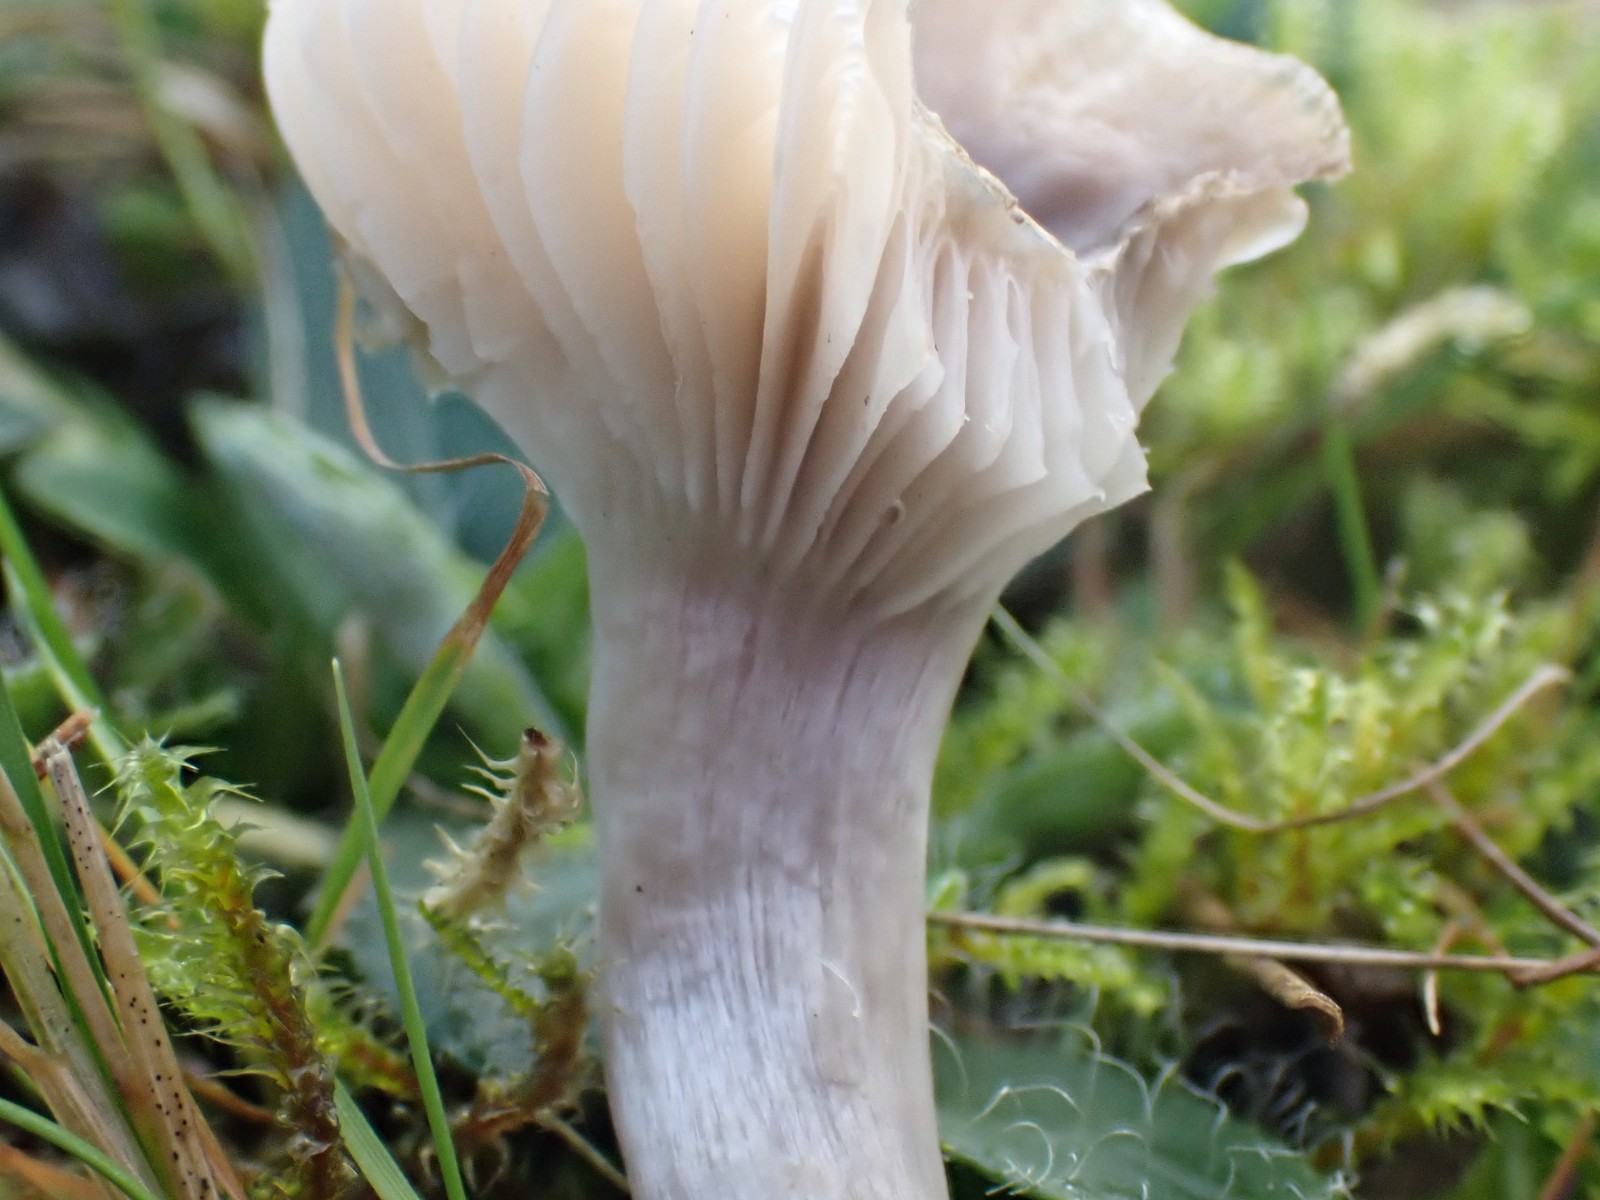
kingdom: Fungi
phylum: Basidiomycota
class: Agaricomycetes
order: Agaricales
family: Hygrophoraceae
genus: Cuphophyllus
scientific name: Cuphophyllus flavipes
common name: gulfodet vokshat
